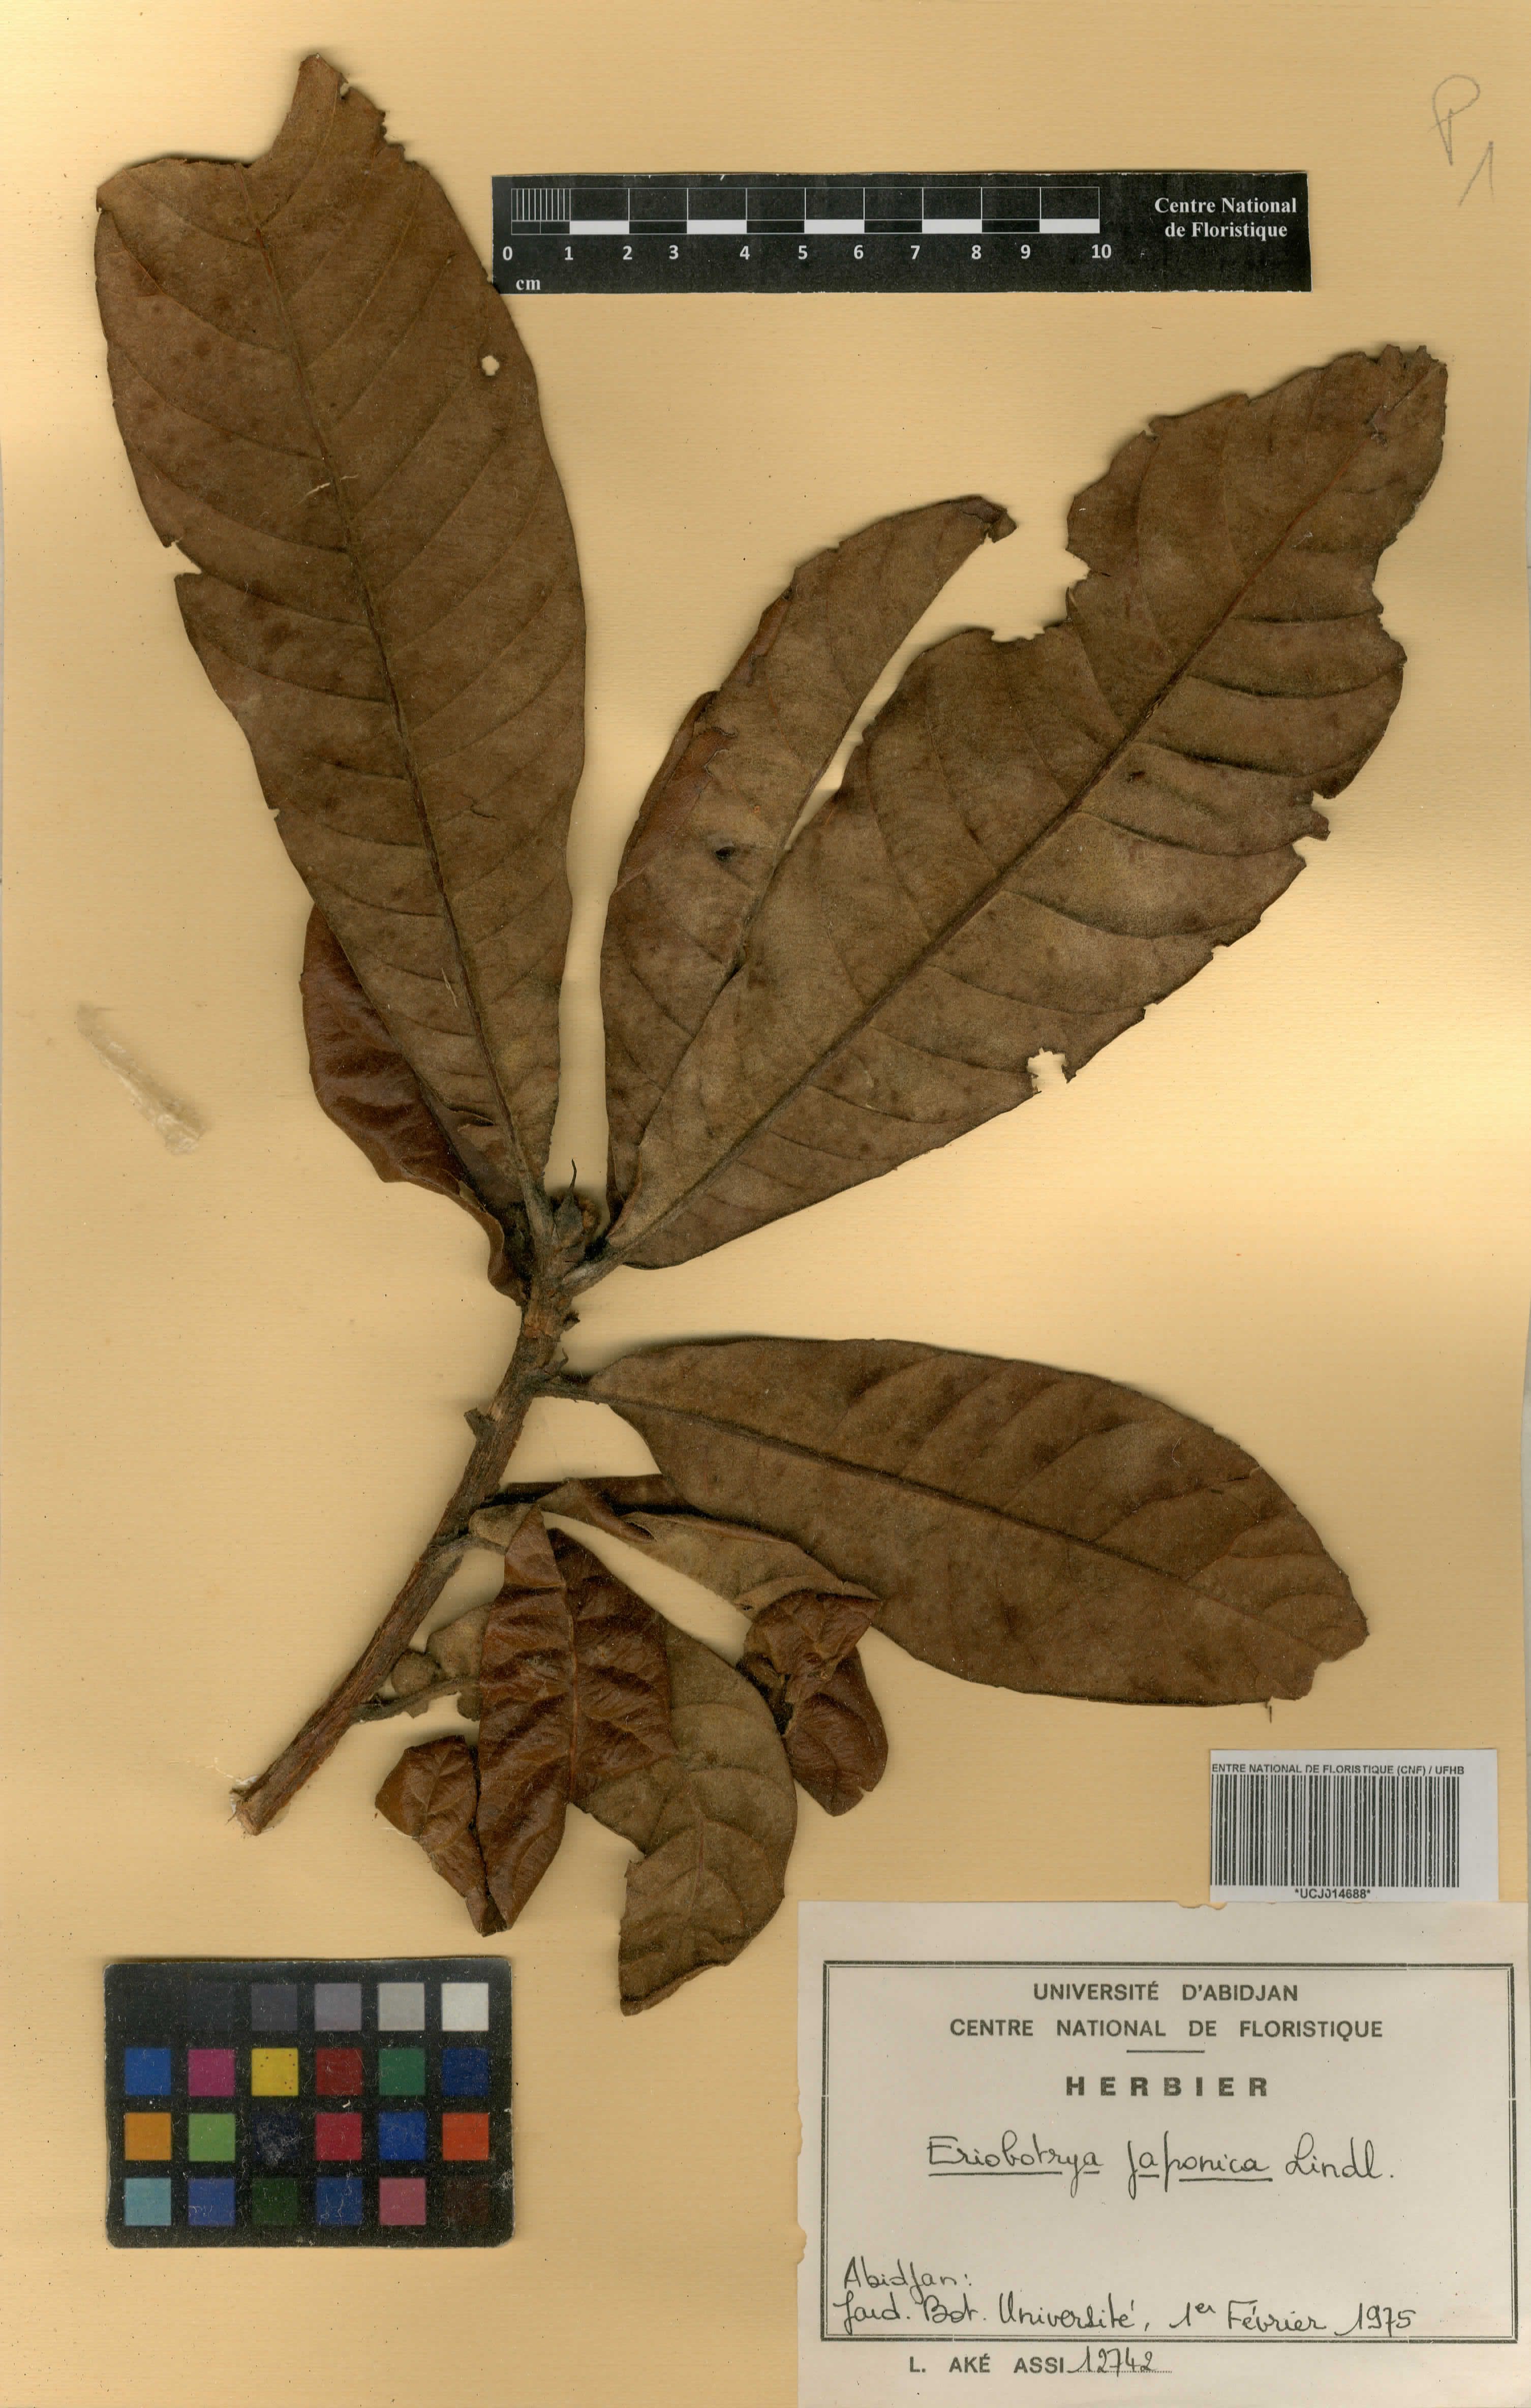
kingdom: Plantae
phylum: Tracheophyta
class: Magnoliopsida
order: Rosales
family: Rosaceae
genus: Rhaphiolepis
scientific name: Rhaphiolepis bibas
